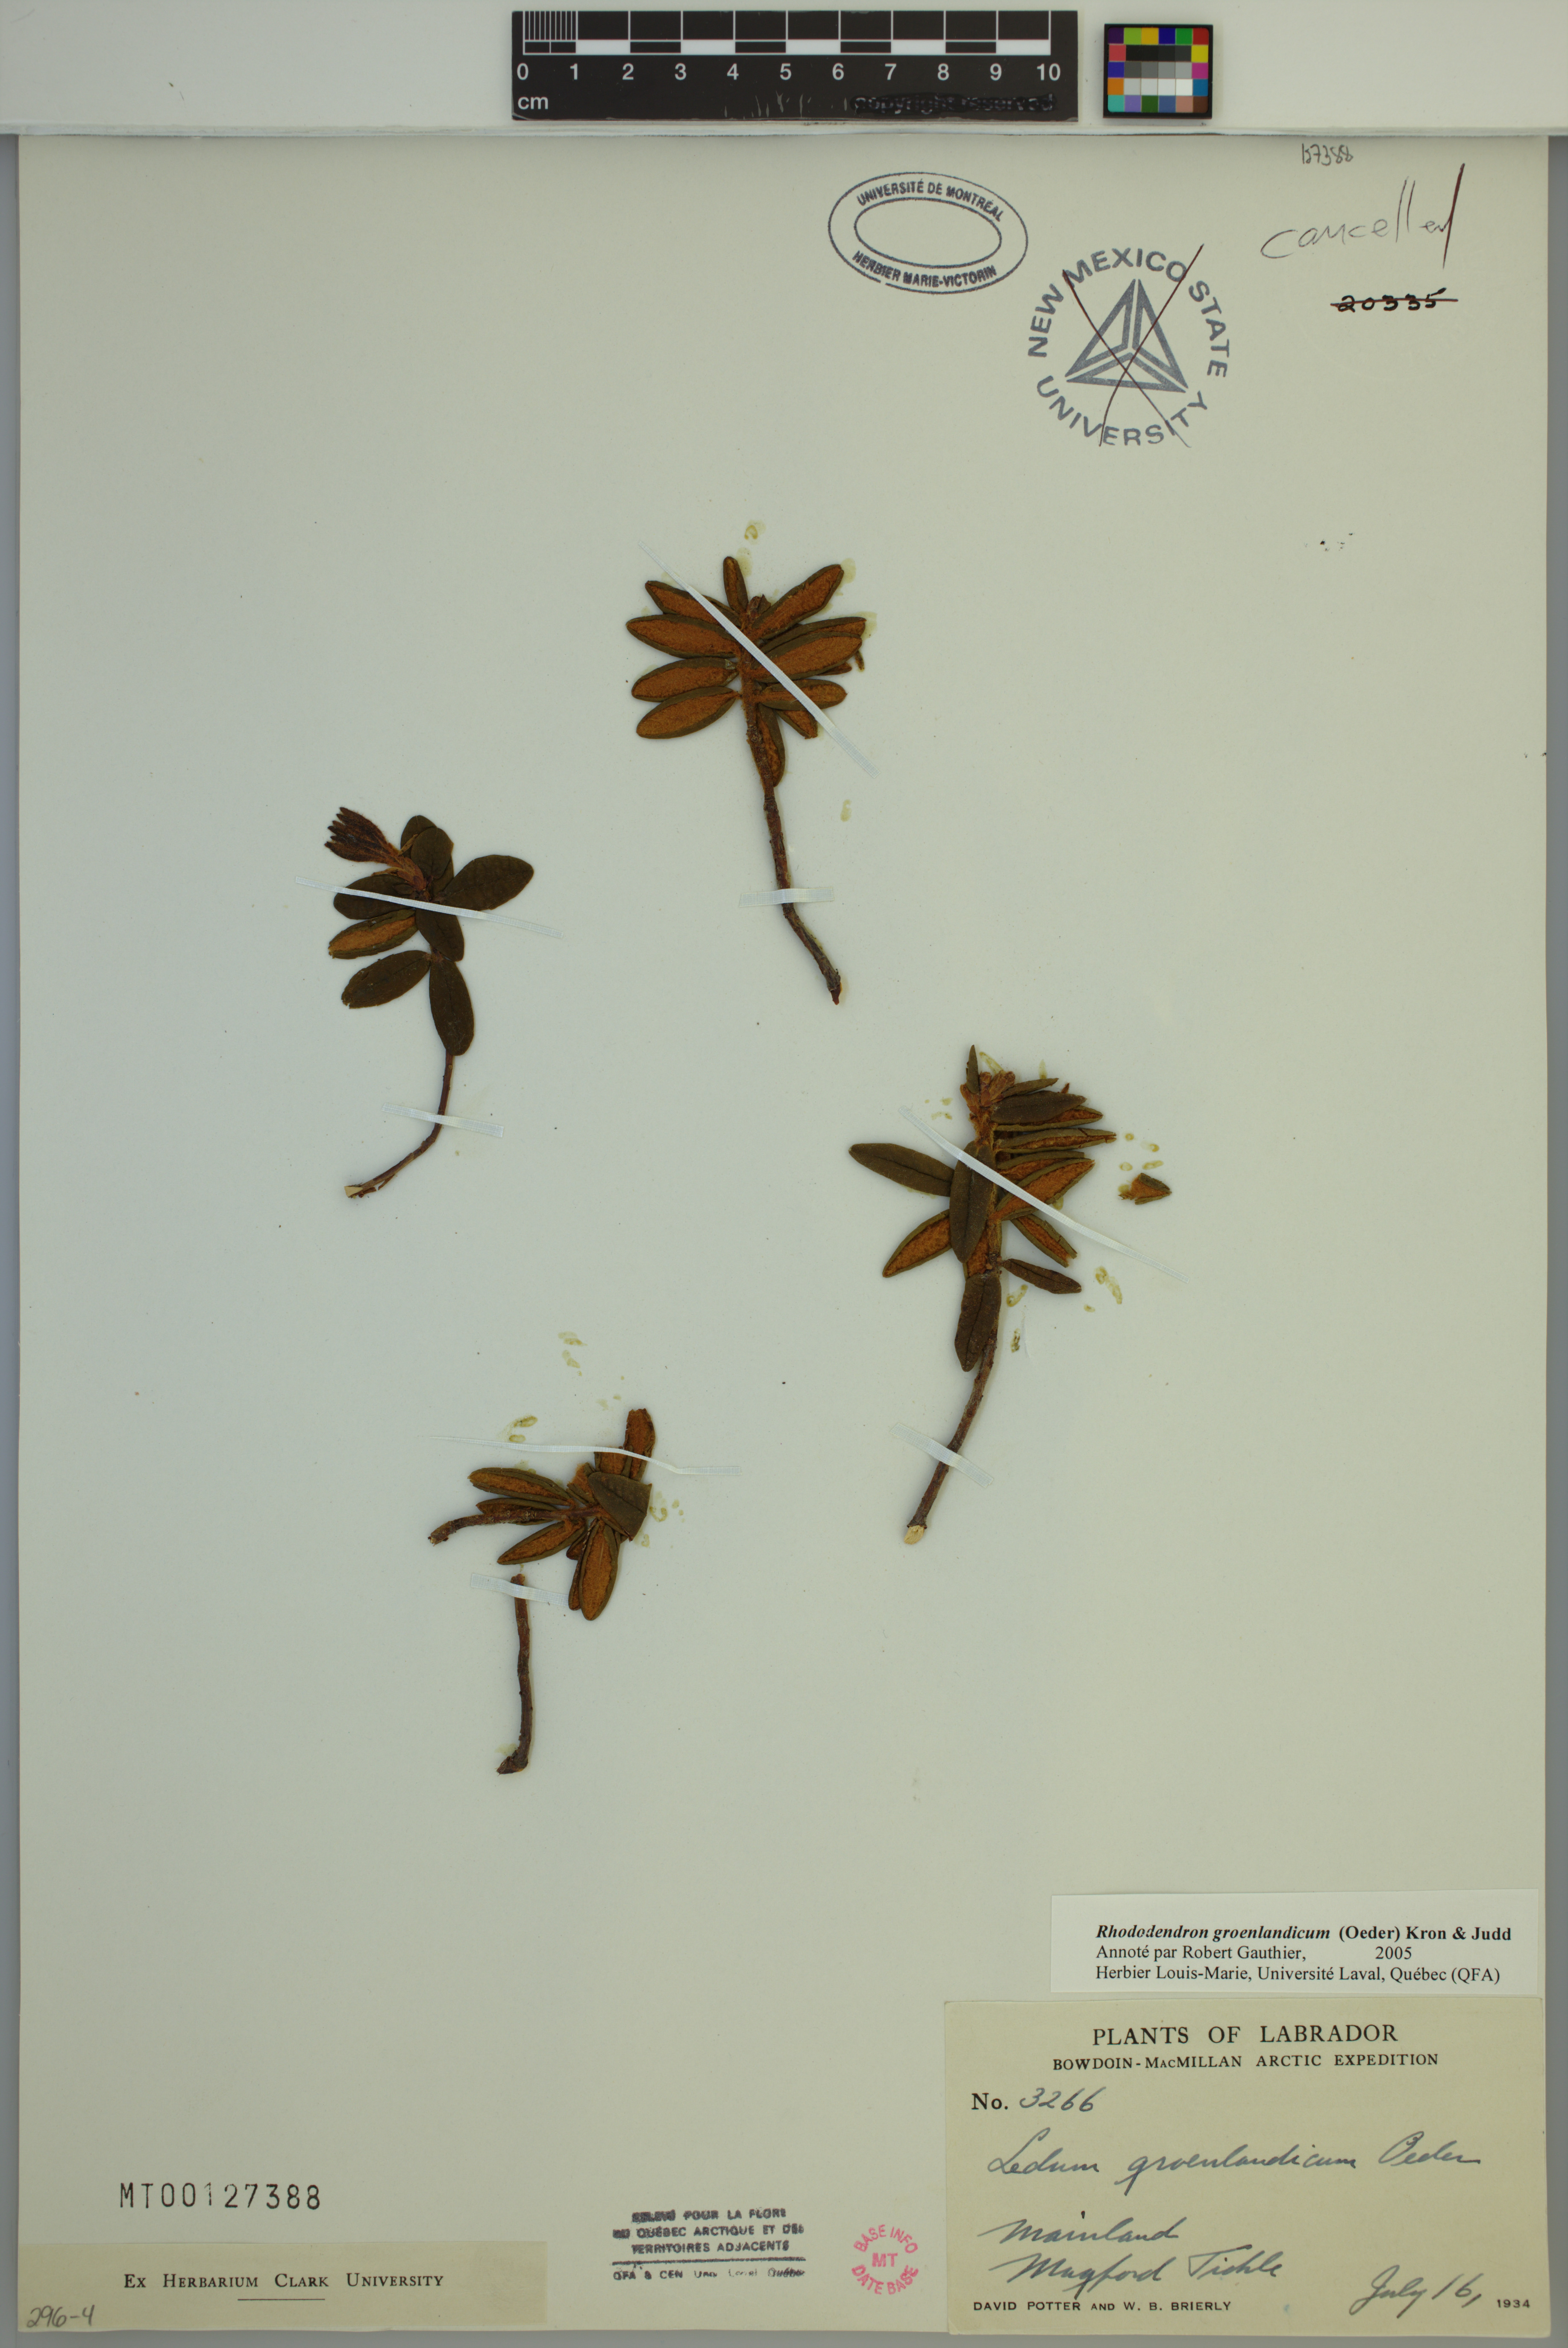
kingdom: Plantae
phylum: Tracheophyta
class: Magnoliopsida
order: Ericales
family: Ericaceae
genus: Rhododendron
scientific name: Rhododendron groenlandicum
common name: Bog labrador tea
